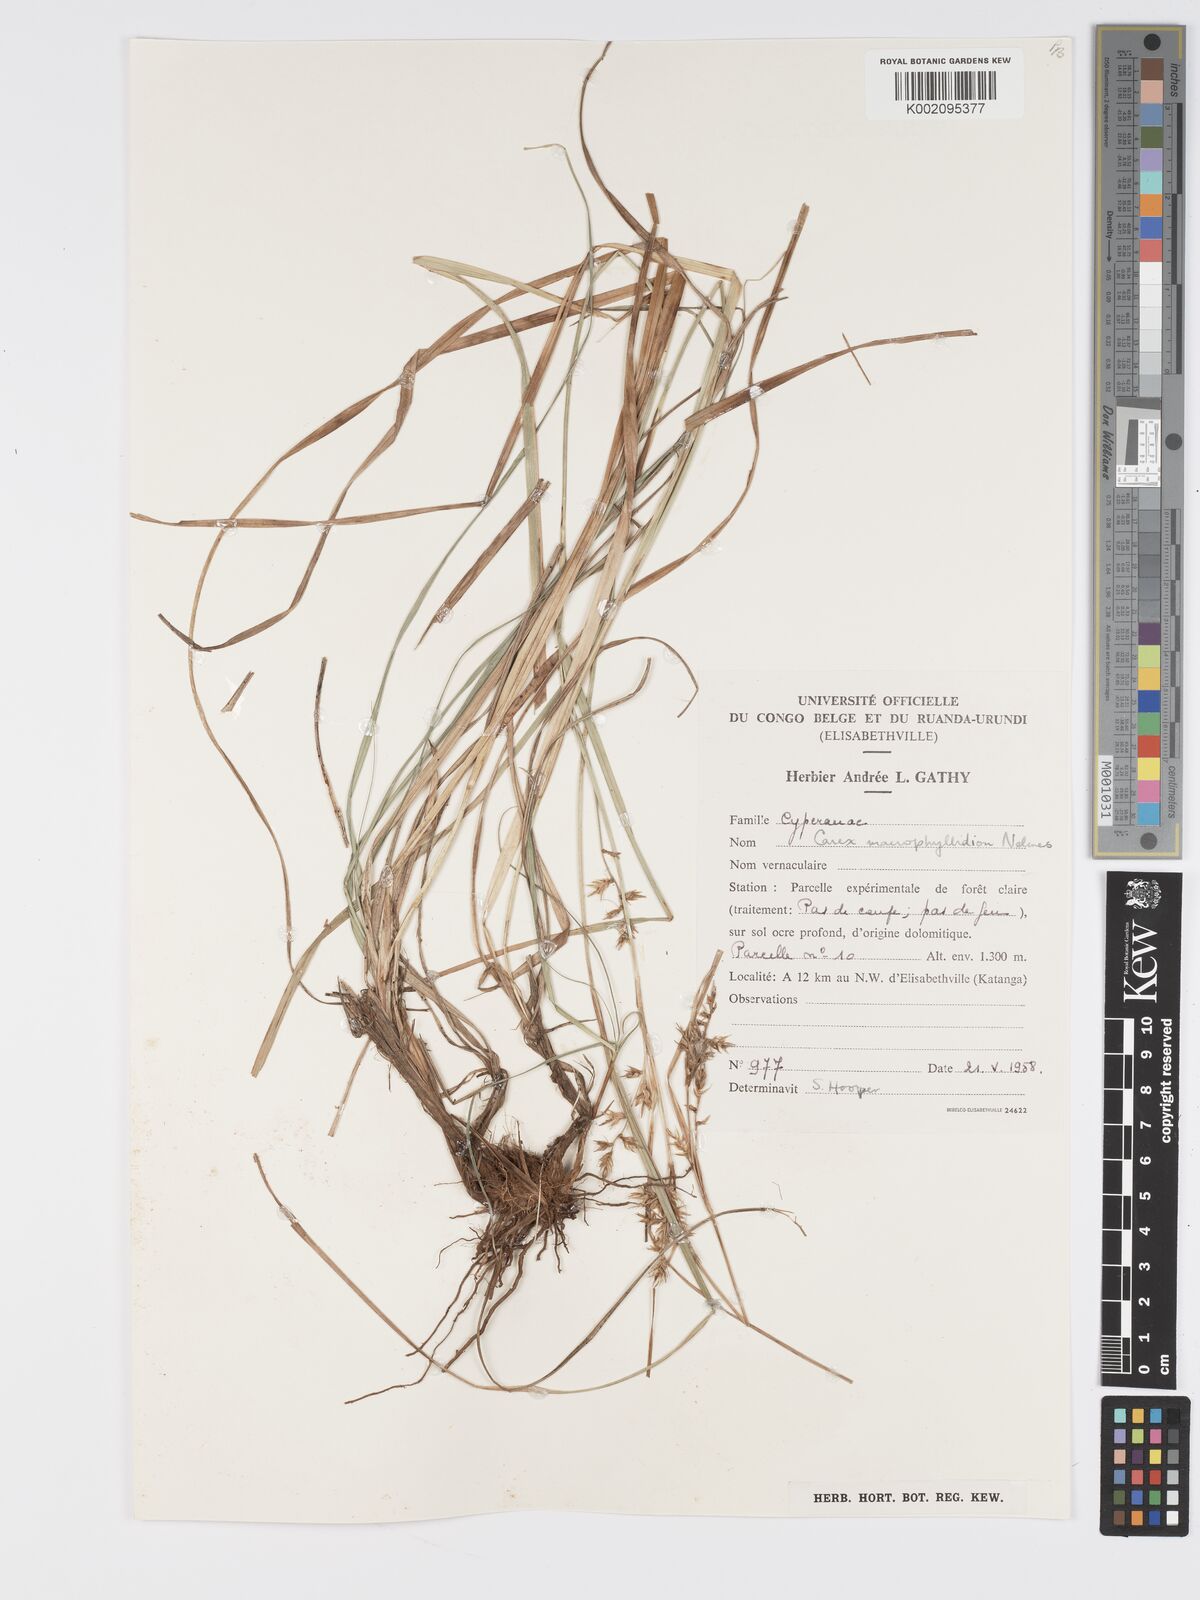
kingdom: Plantae
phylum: Tracheophyta
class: Liliopsida
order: Poales
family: Cyperaceae
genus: Carex
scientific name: Carex macrophyllidion
